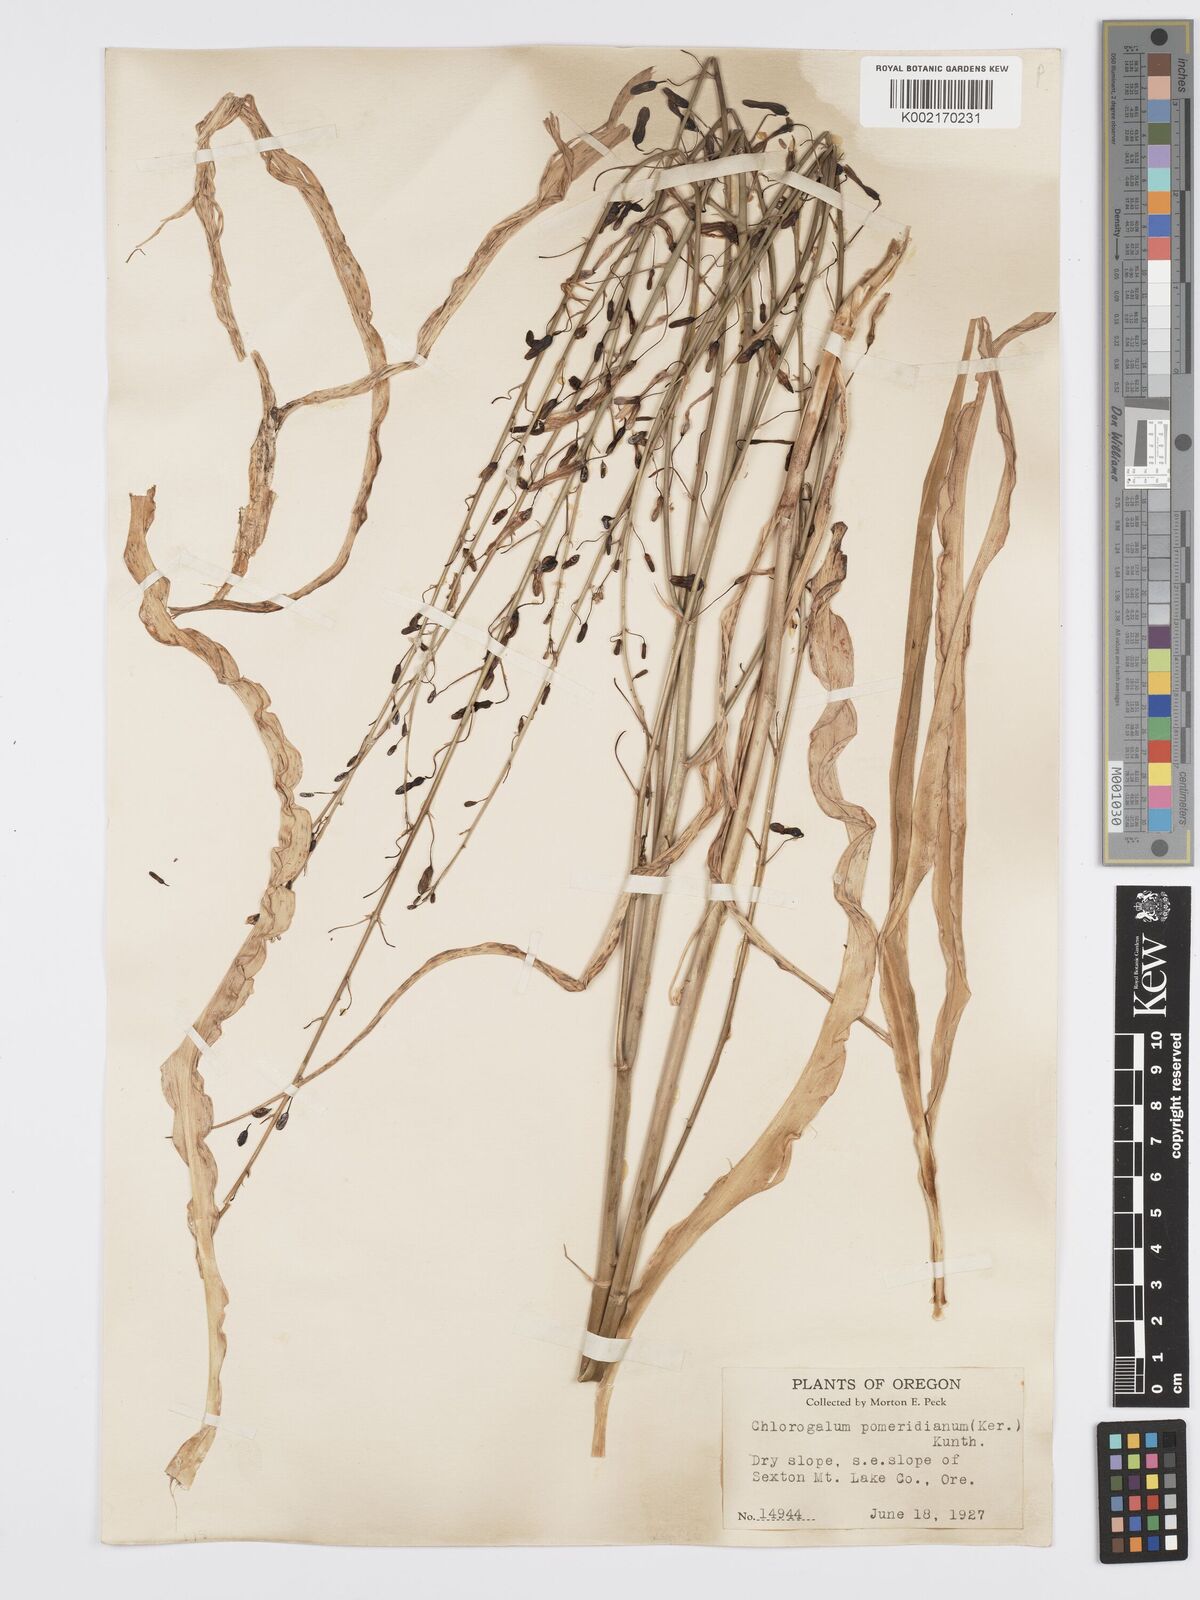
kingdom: Plantae
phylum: Tracheophyta
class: Liliopsida
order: Asparagales
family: Asparagaceae
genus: Chlorogalum
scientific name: Chlorogalum pomeridianum
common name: Amole
